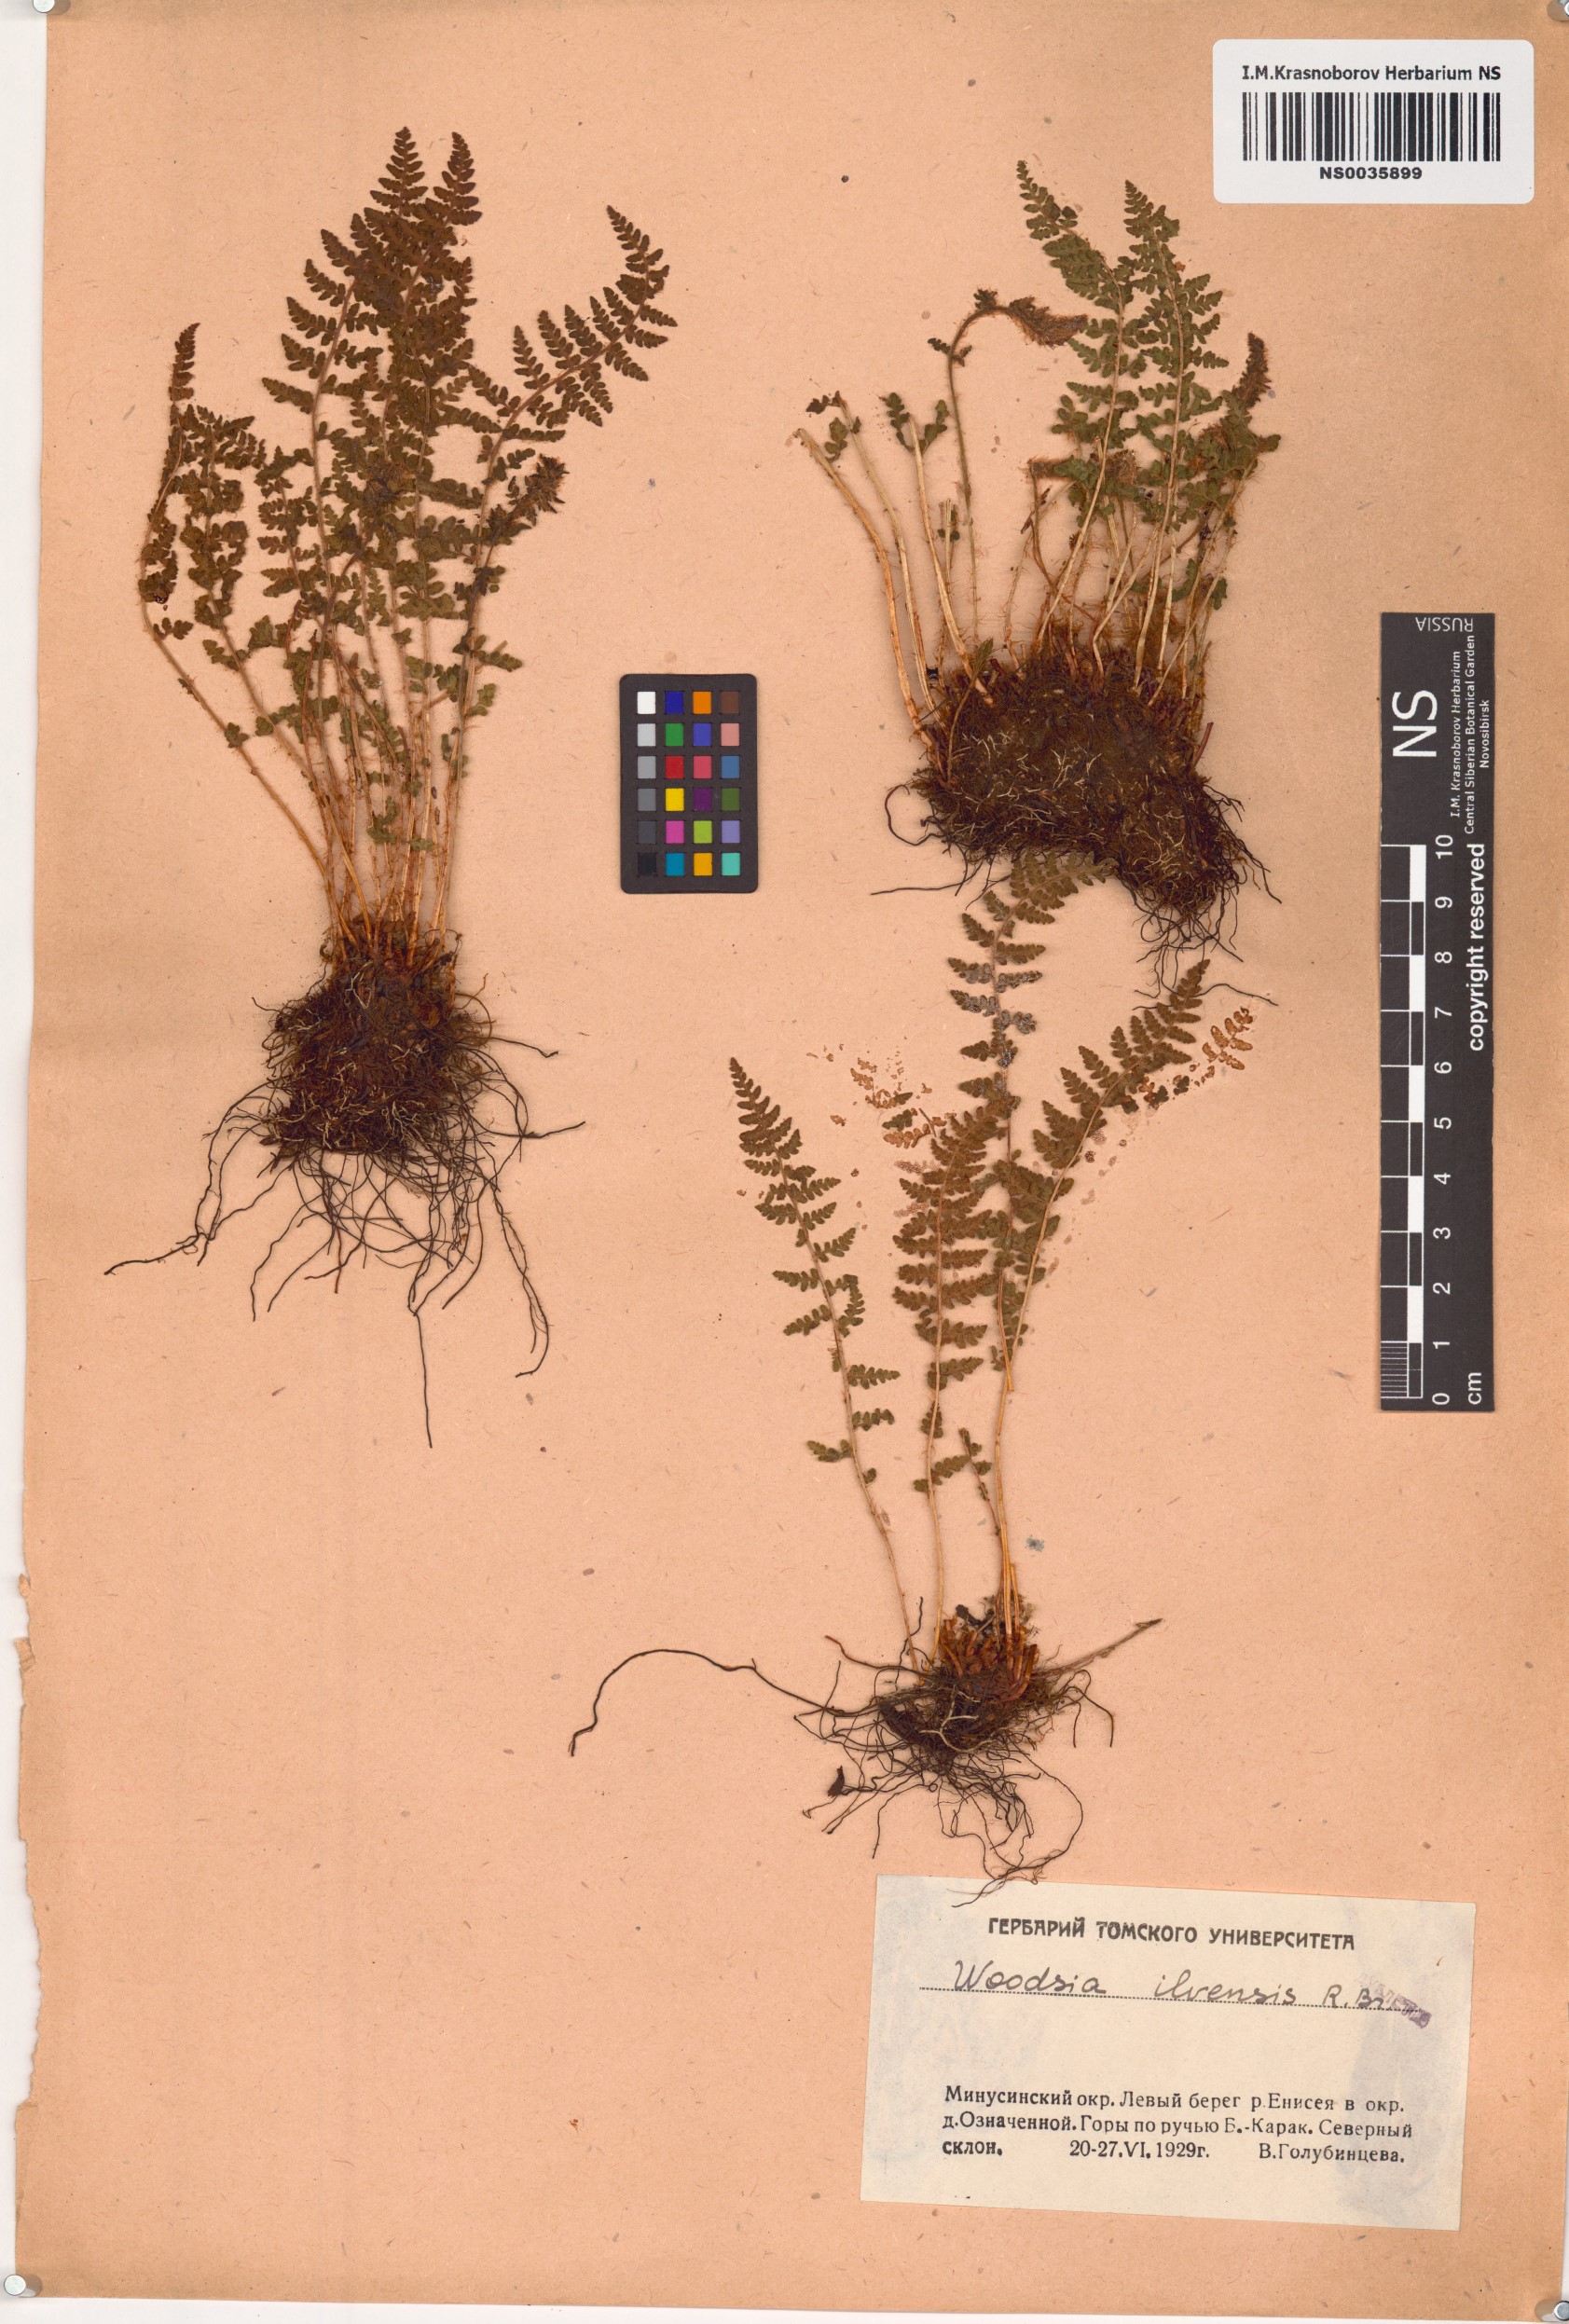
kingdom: Plantae
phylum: Tracheophyta
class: Polypodiopsida
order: Polypodiales
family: Woodsiaceae
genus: Woodsia
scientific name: Woodsia ilvensis
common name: Fragrant woodsia
